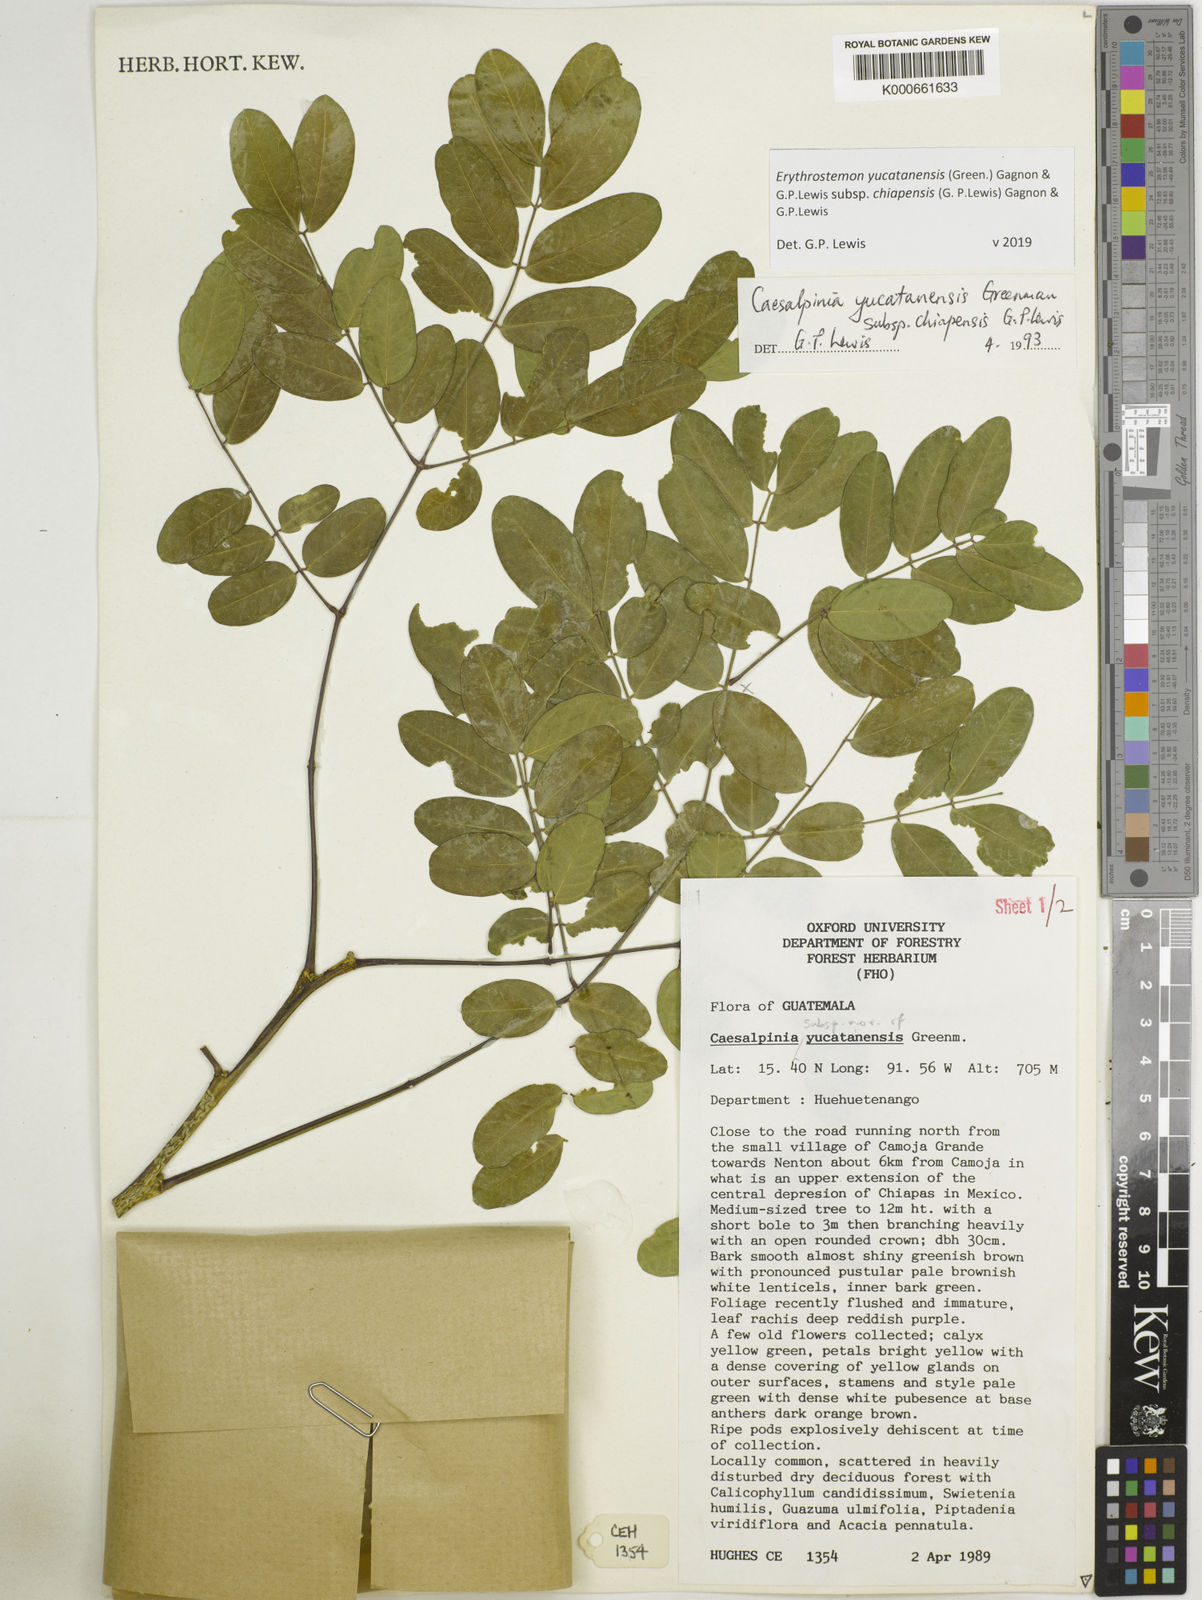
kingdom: Plantae
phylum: Tracheophyta
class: Magnoliopsida
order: Fabales
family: Fabaceae
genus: Caesalpinia
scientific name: Caesalpinia
